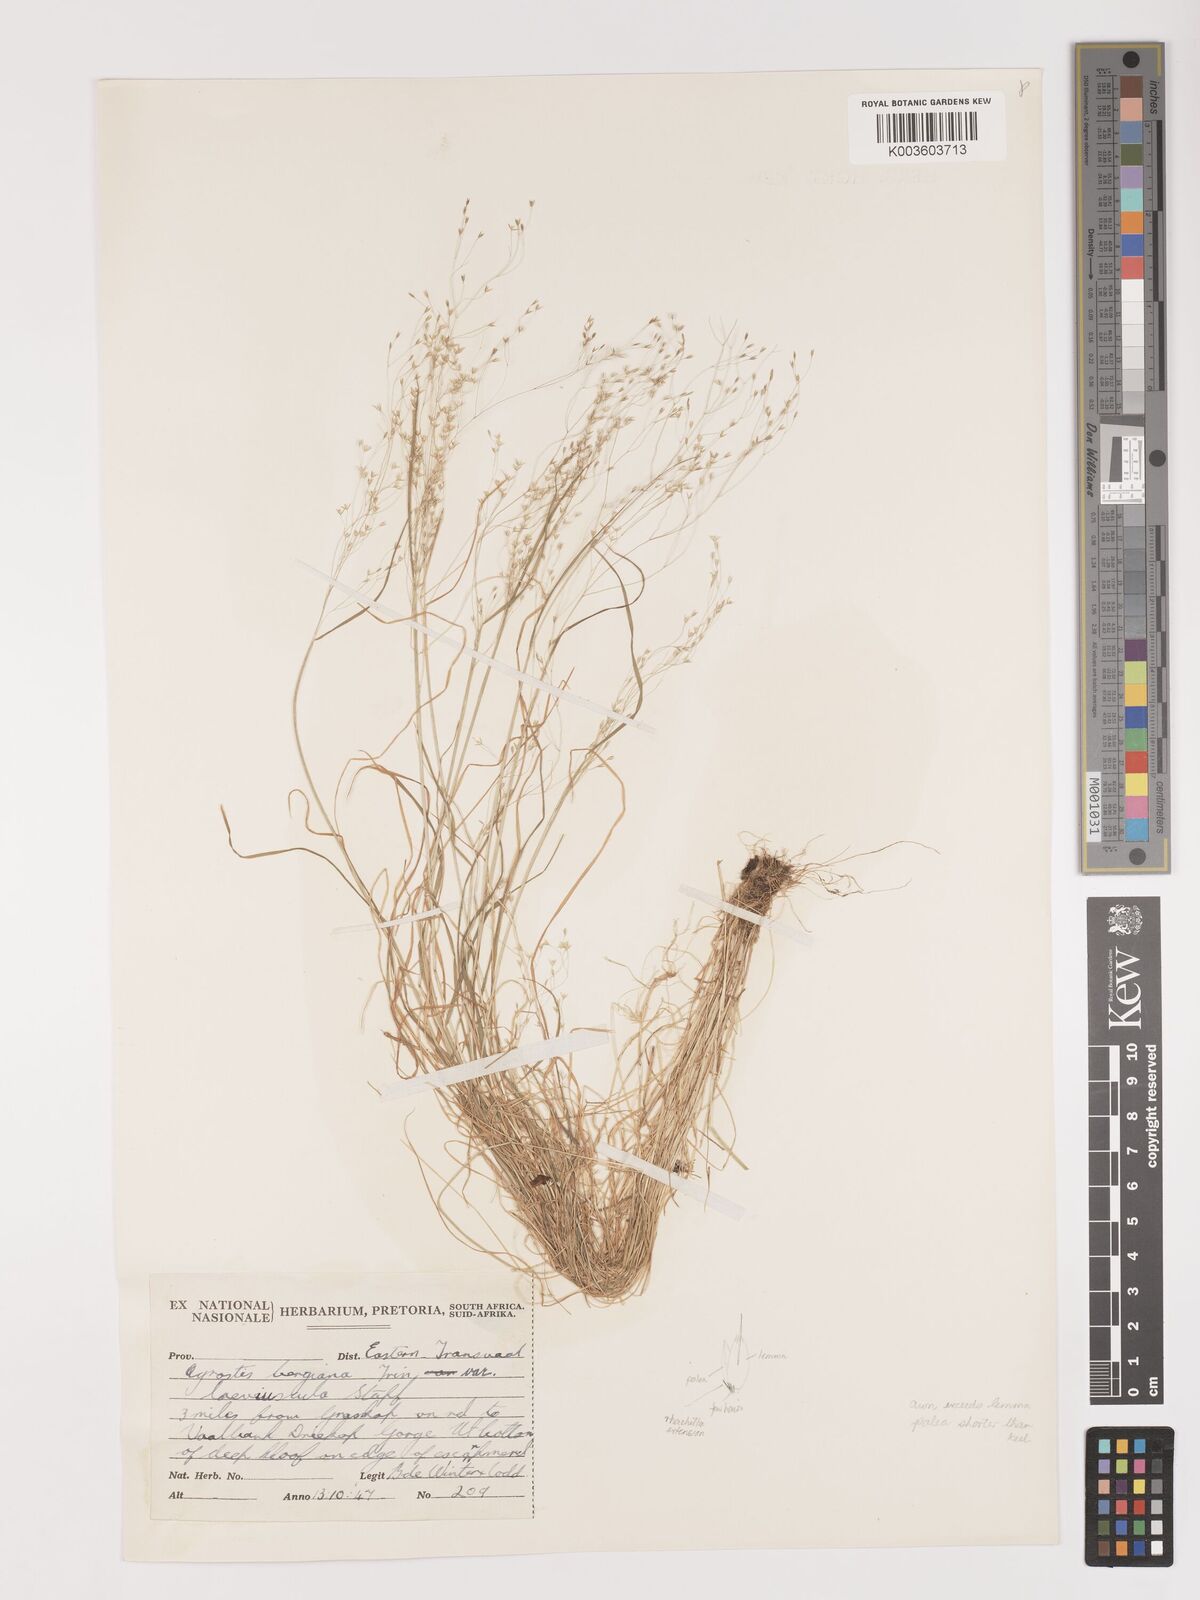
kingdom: Plantae
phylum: Tracheophyta
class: Liliopsida
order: Poales
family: Poaceae
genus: Agrostis
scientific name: Agrostis bergiana
